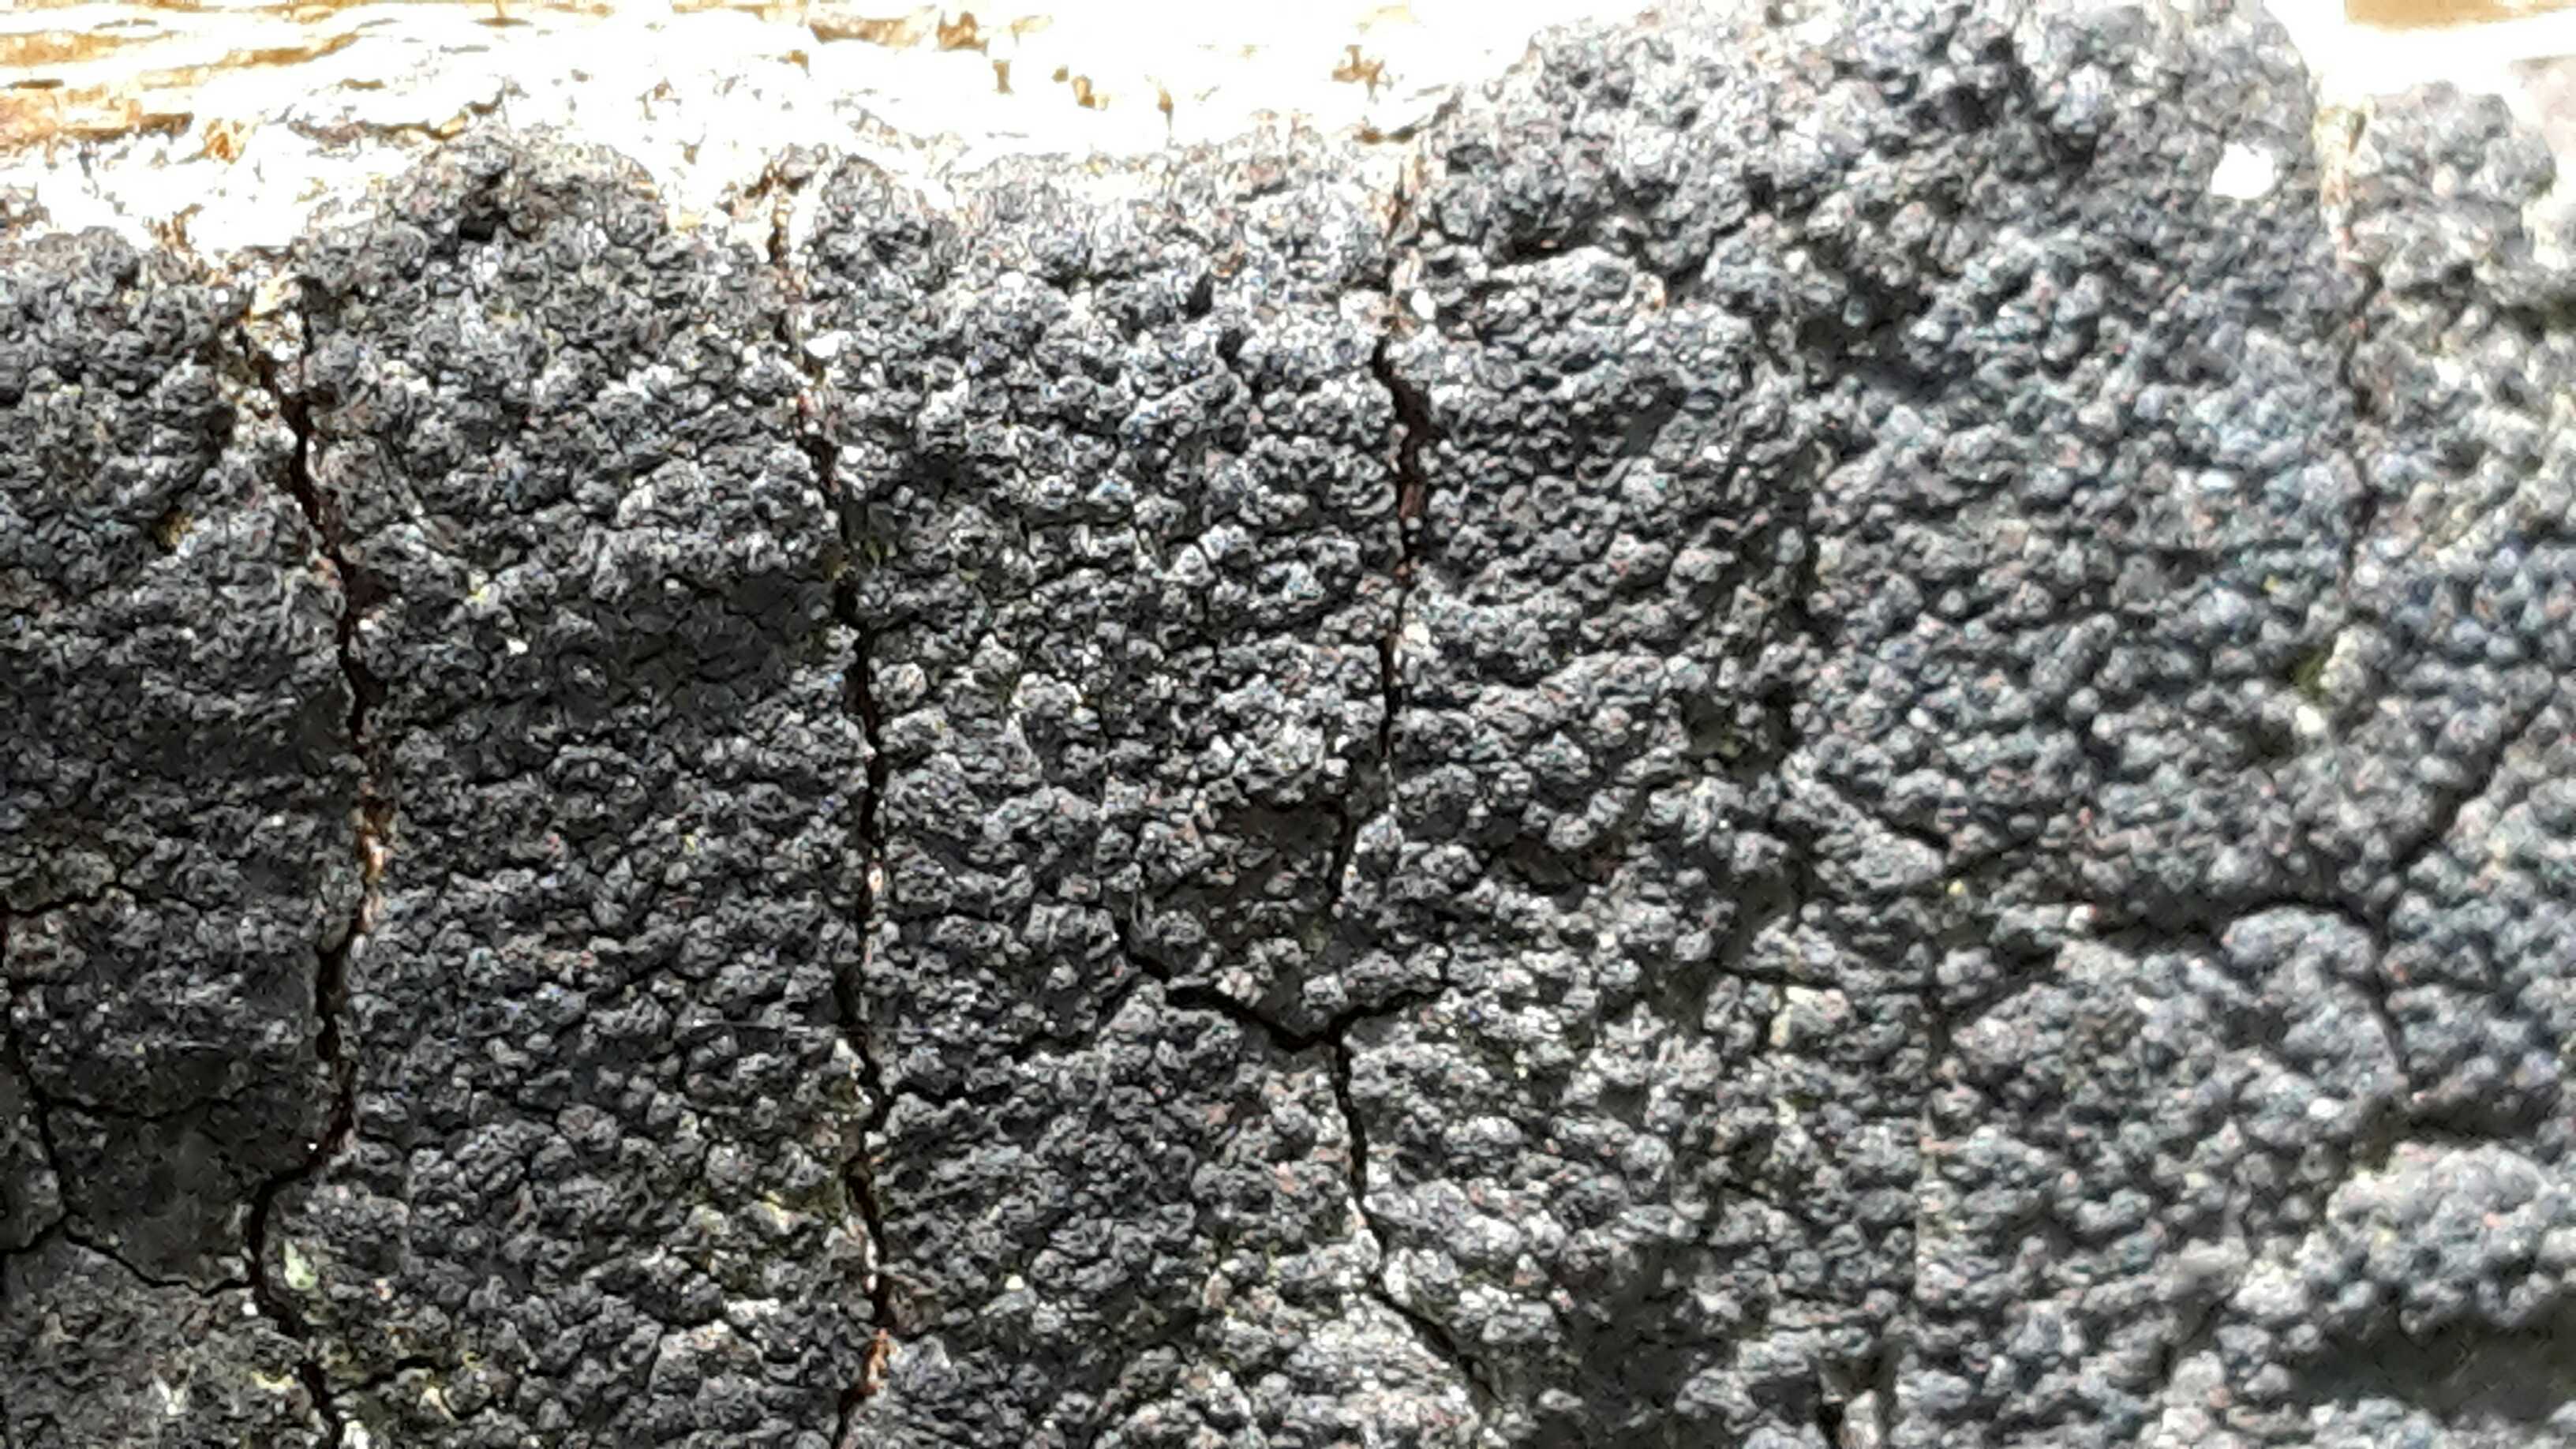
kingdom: Fungi
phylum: Ascomycota
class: Sordariomycetes
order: Xylariales
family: Diatrypaceae
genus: Eutypa
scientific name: Eutypa spinosa
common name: grov kulskorpe
